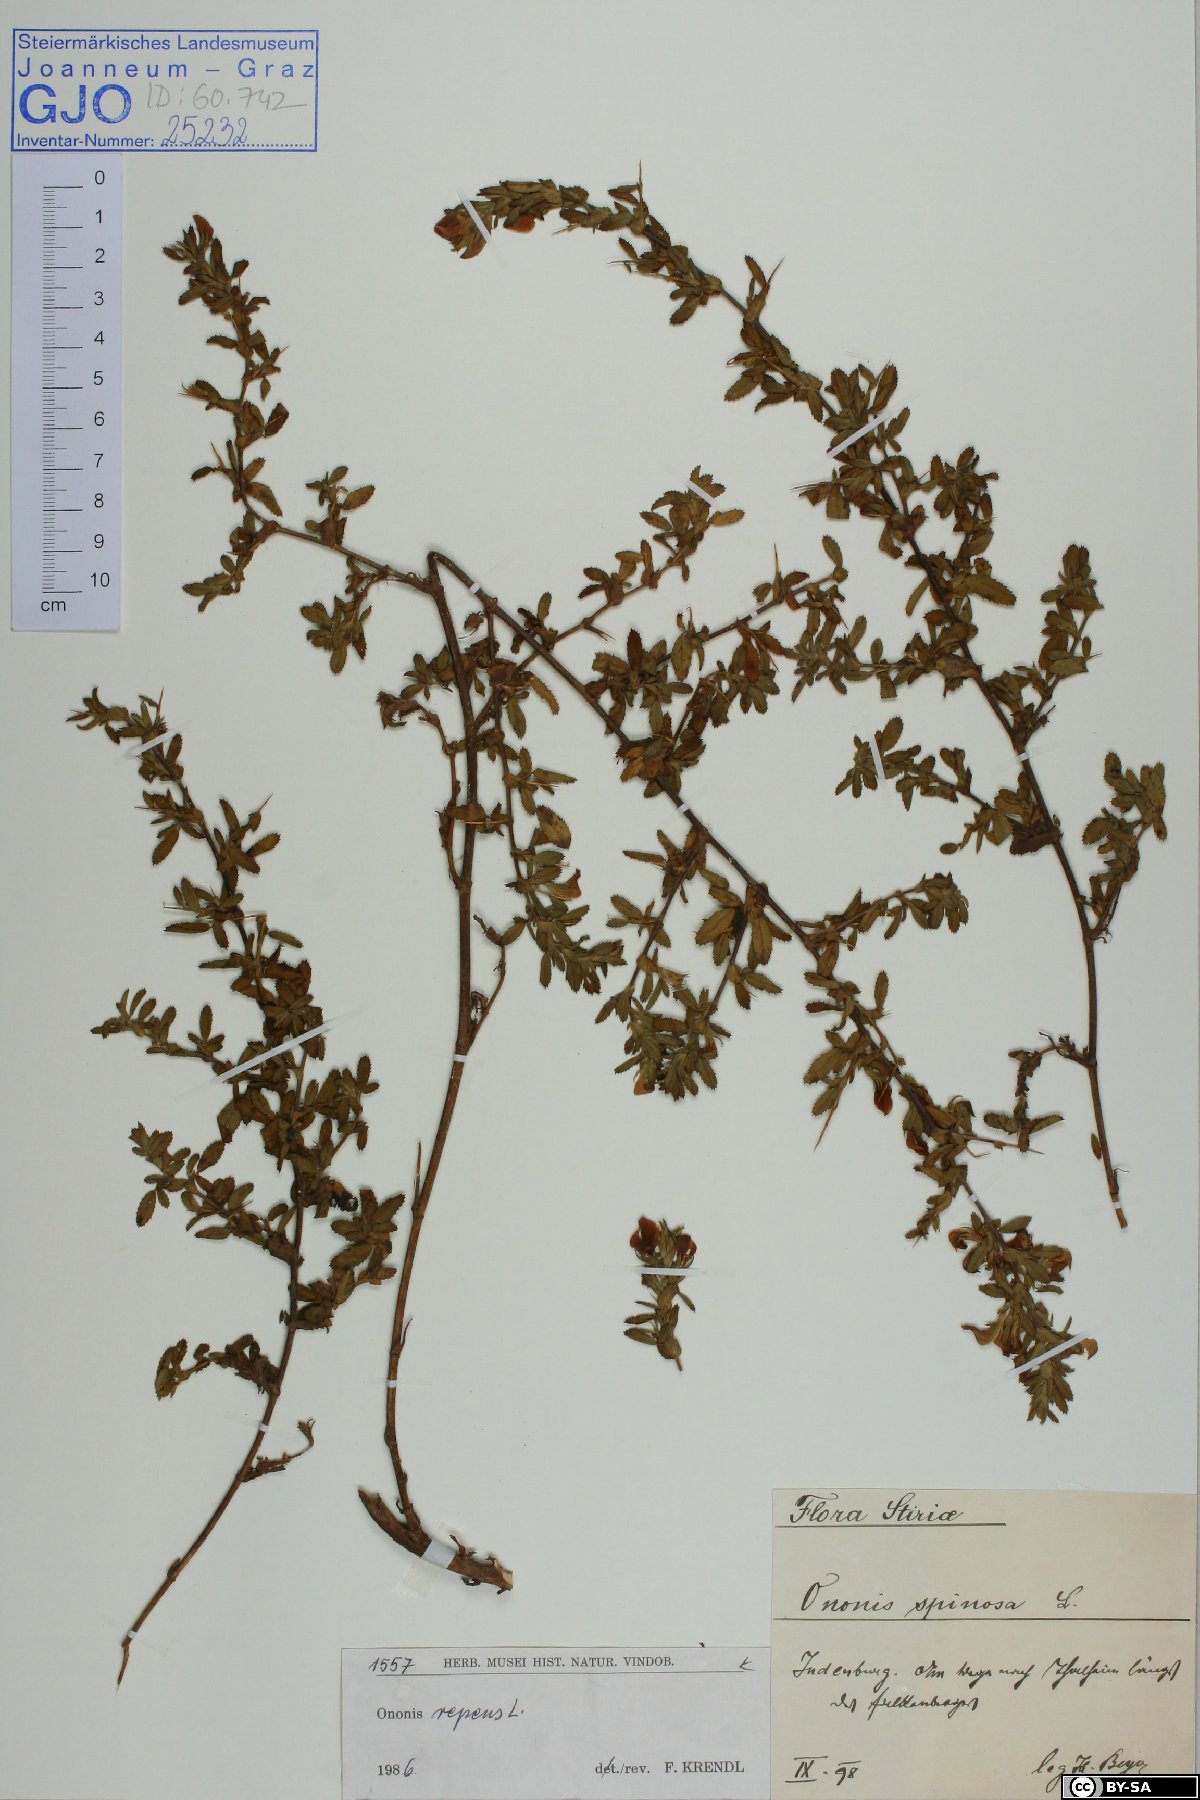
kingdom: Plantae
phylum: Tracheophyta
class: Magnoliopsida
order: Fabales
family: Fabaceae
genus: Ononis
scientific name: Ononis spinosa
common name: Spiny restharrow
